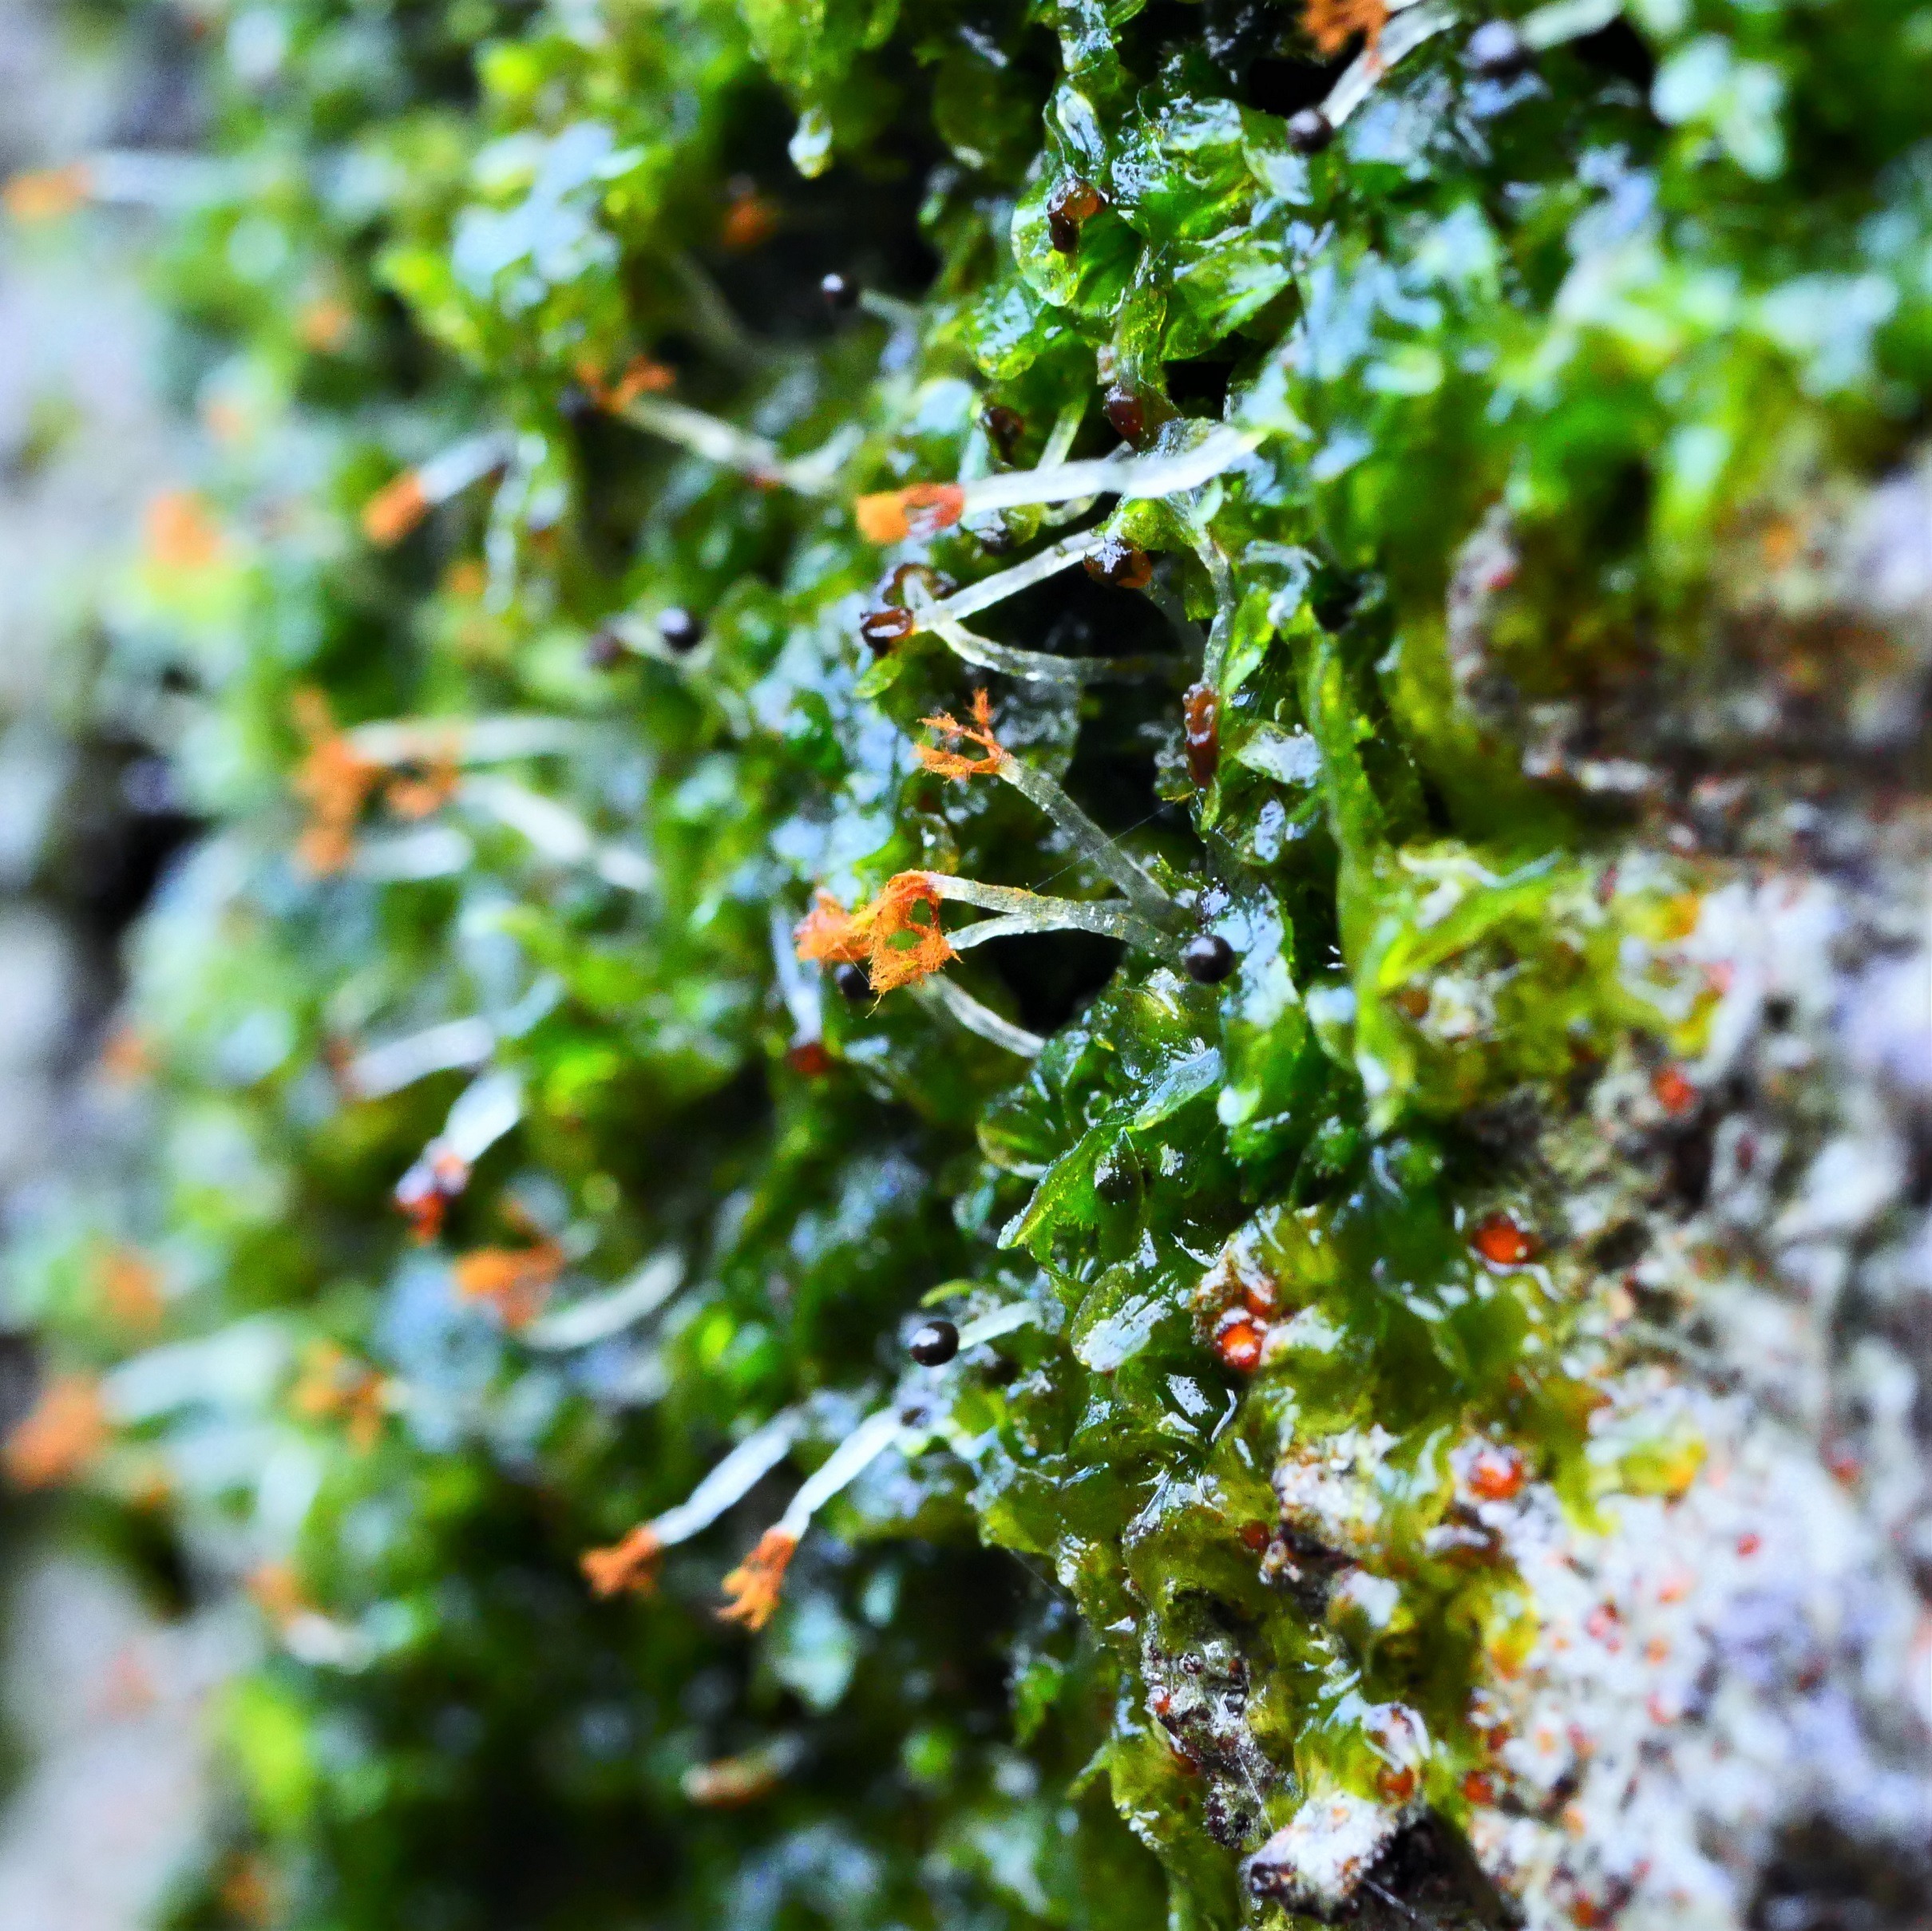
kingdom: Plantae
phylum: Marchantiophyta
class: Jungermanniopsida
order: Metzgeriales
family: Metzgeriaceae
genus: Metzgeria
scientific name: Metzgeria furcata
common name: Almindelig gaffelløv
